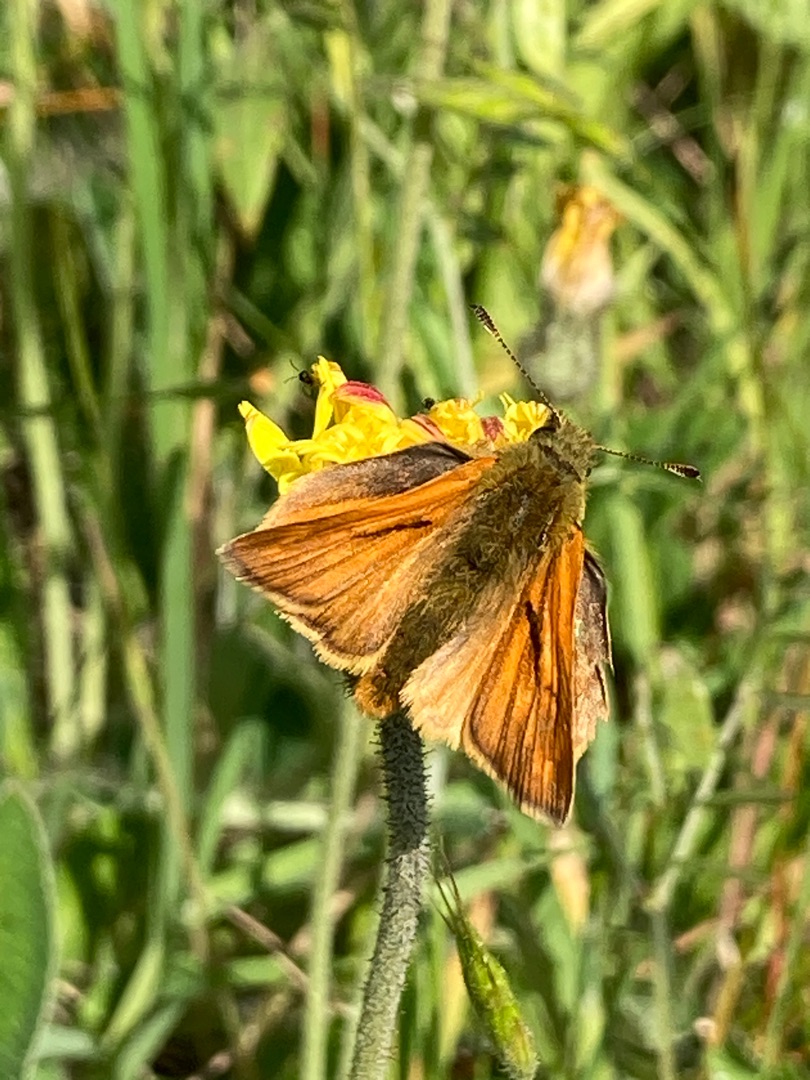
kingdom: Animalia
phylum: Arthropoda
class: Insecta
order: Lepidoptera
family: Hesperiidae
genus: Ochlodes
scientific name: Ochlodes venata
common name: Stor bredpande
